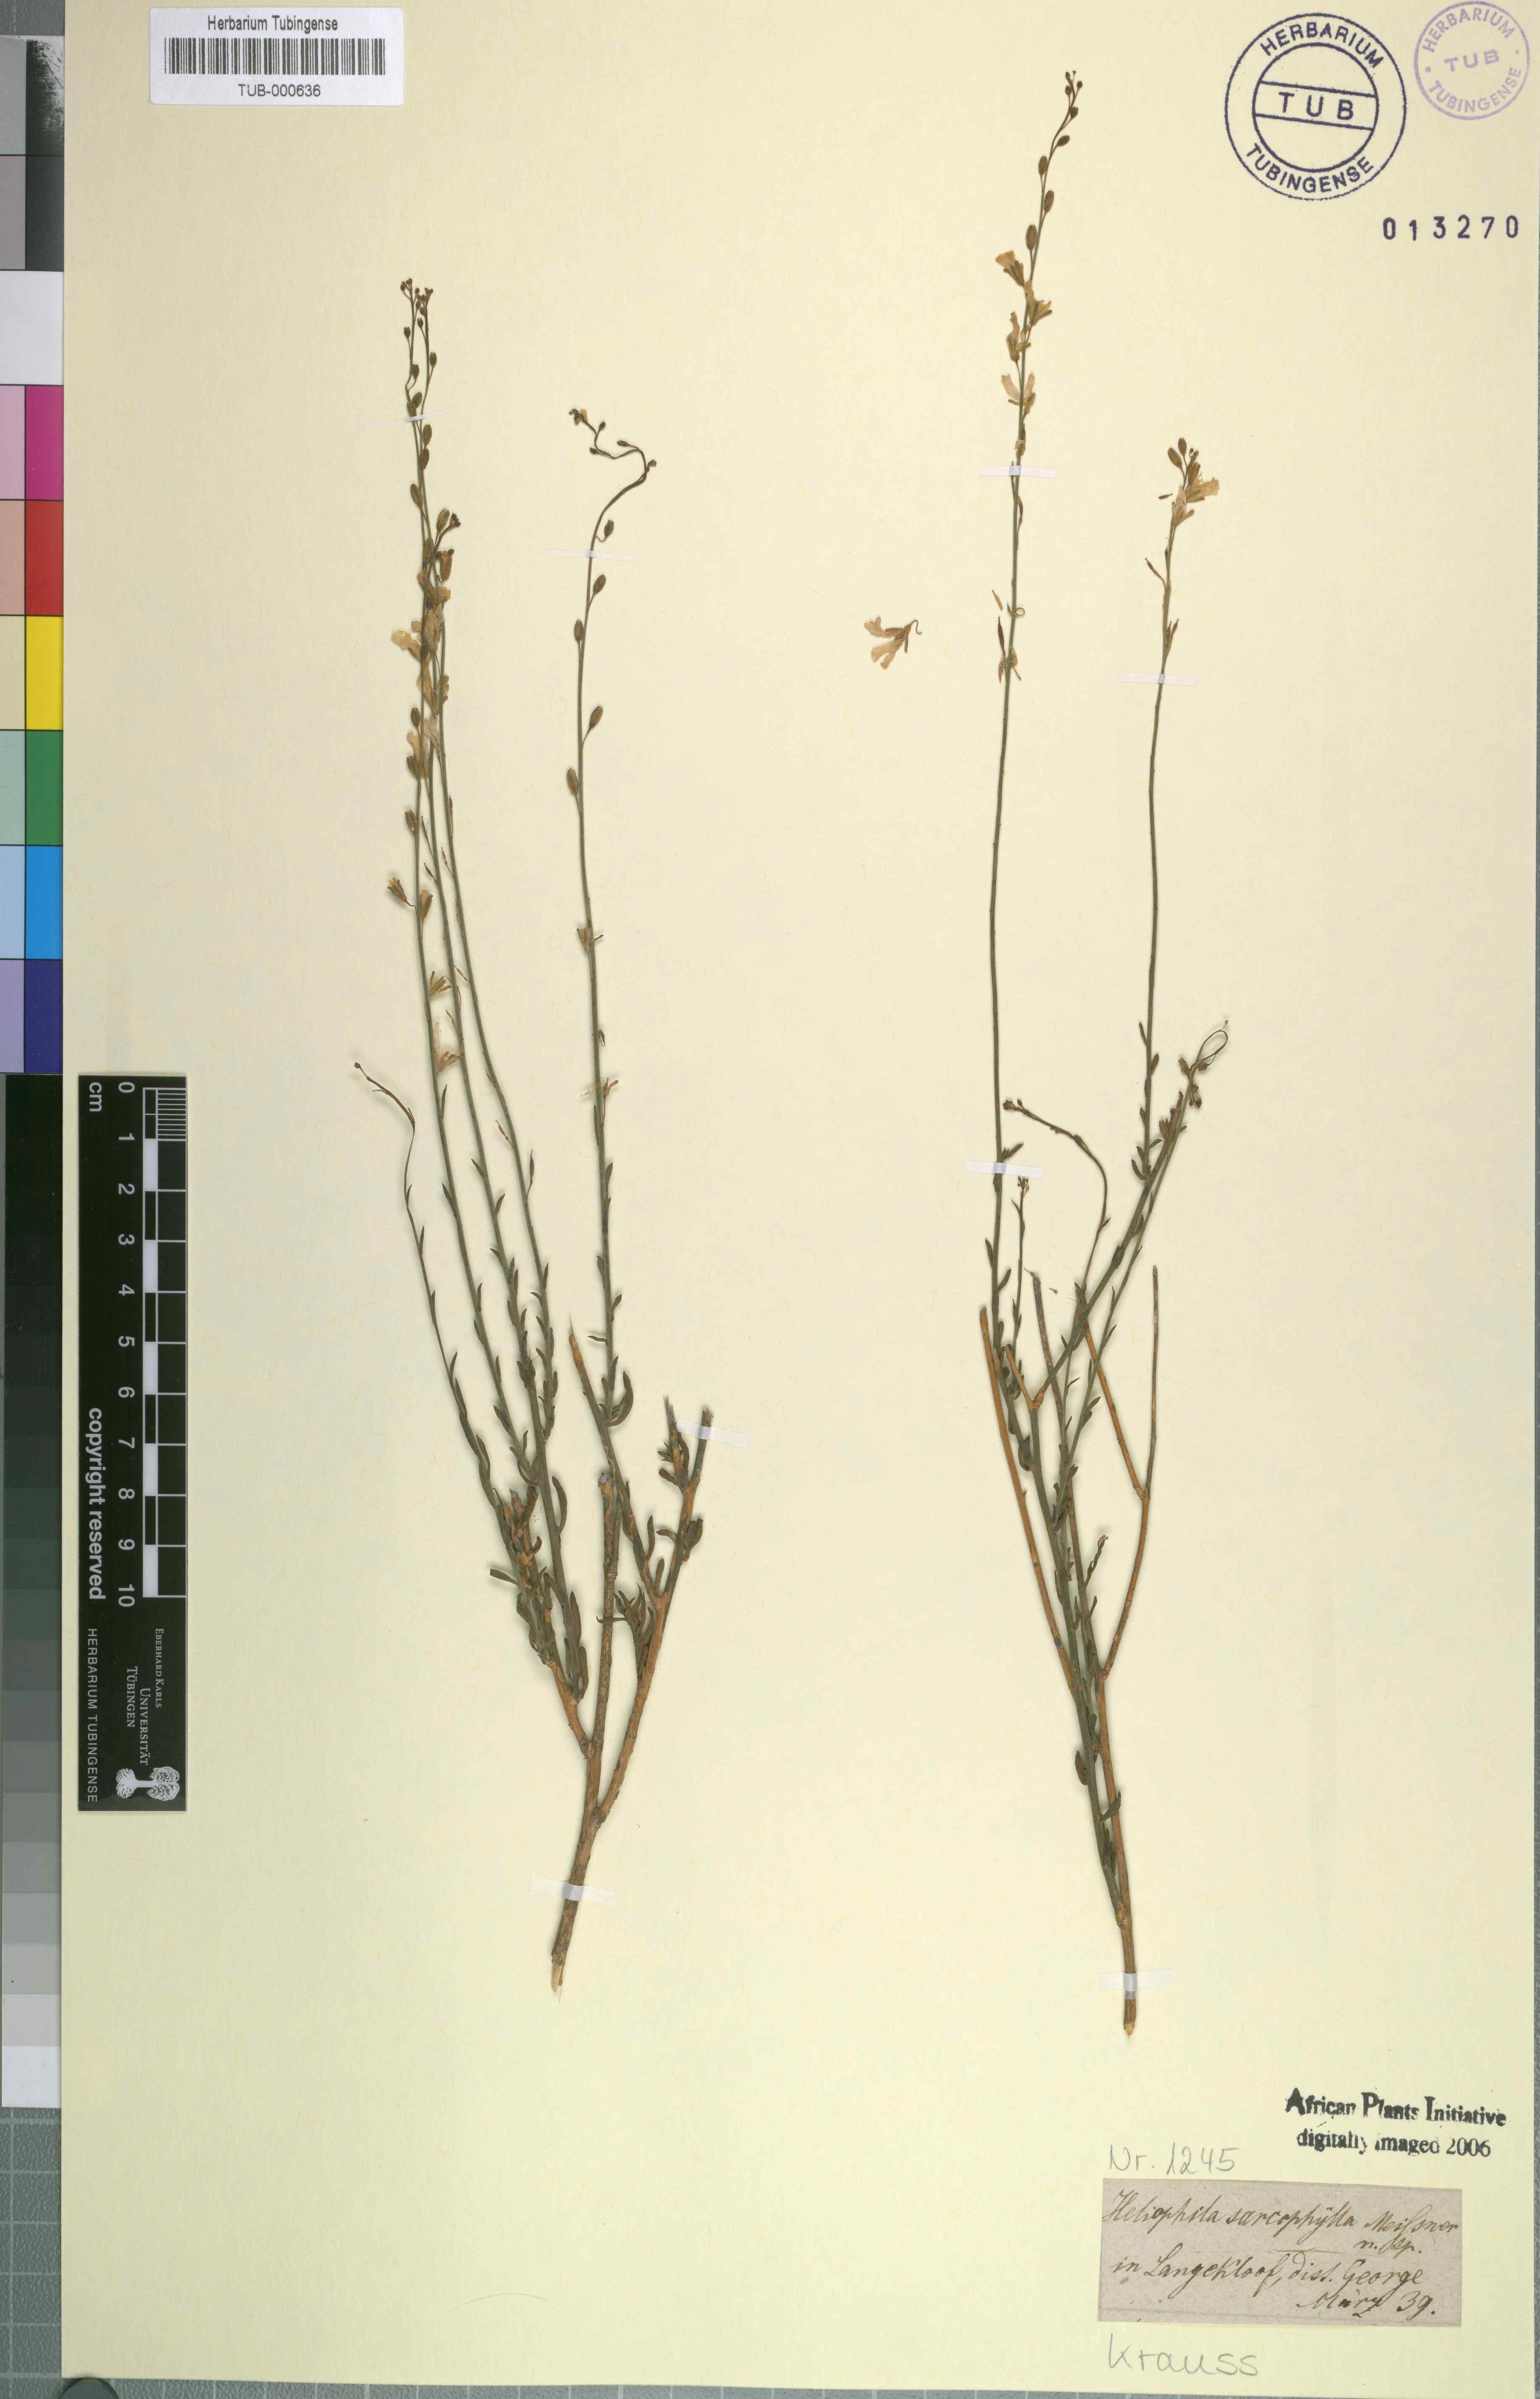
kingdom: Plantae
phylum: Tracheophyta
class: Magnoliopsida
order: Brassicales
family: Brassicaceae
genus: Heliophila
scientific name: Heliophila glauca
